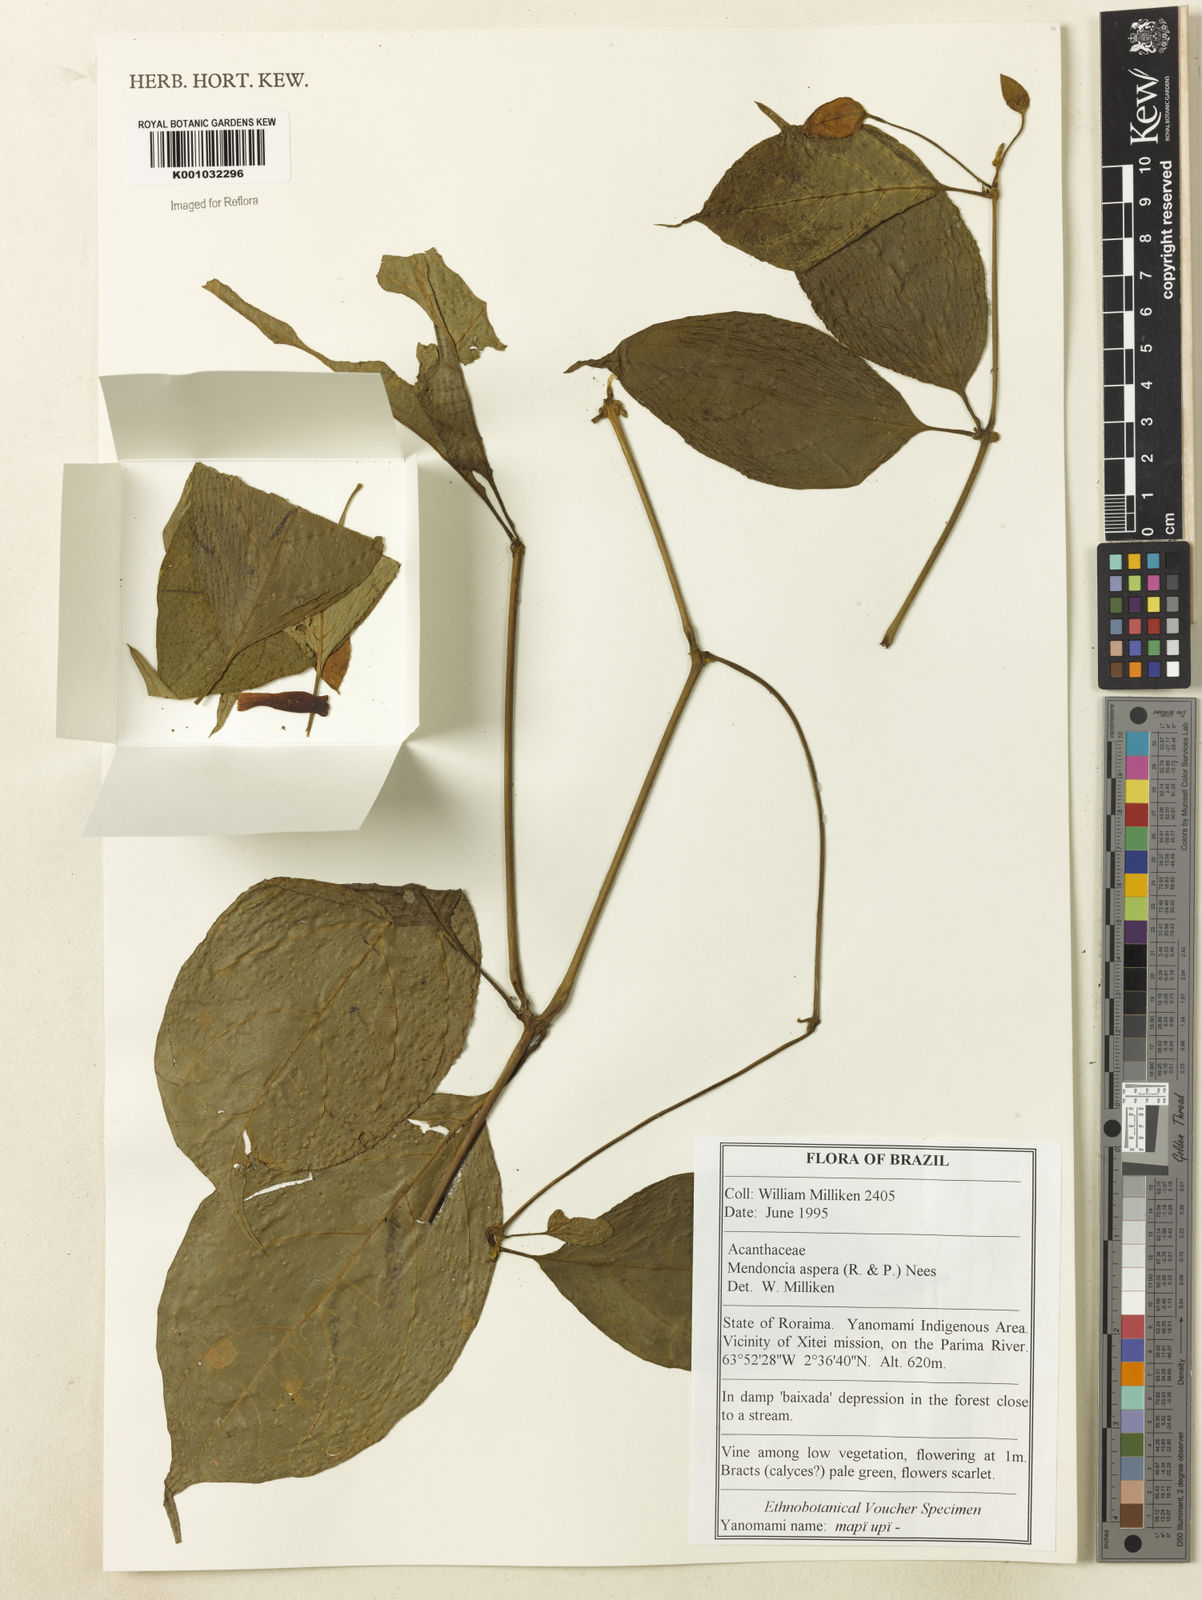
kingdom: Plantae
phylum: Tracheophyta
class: Magnoliopsida
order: Lamiales
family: Acanthaceae
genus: Mendoncia
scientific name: Mendoncia
